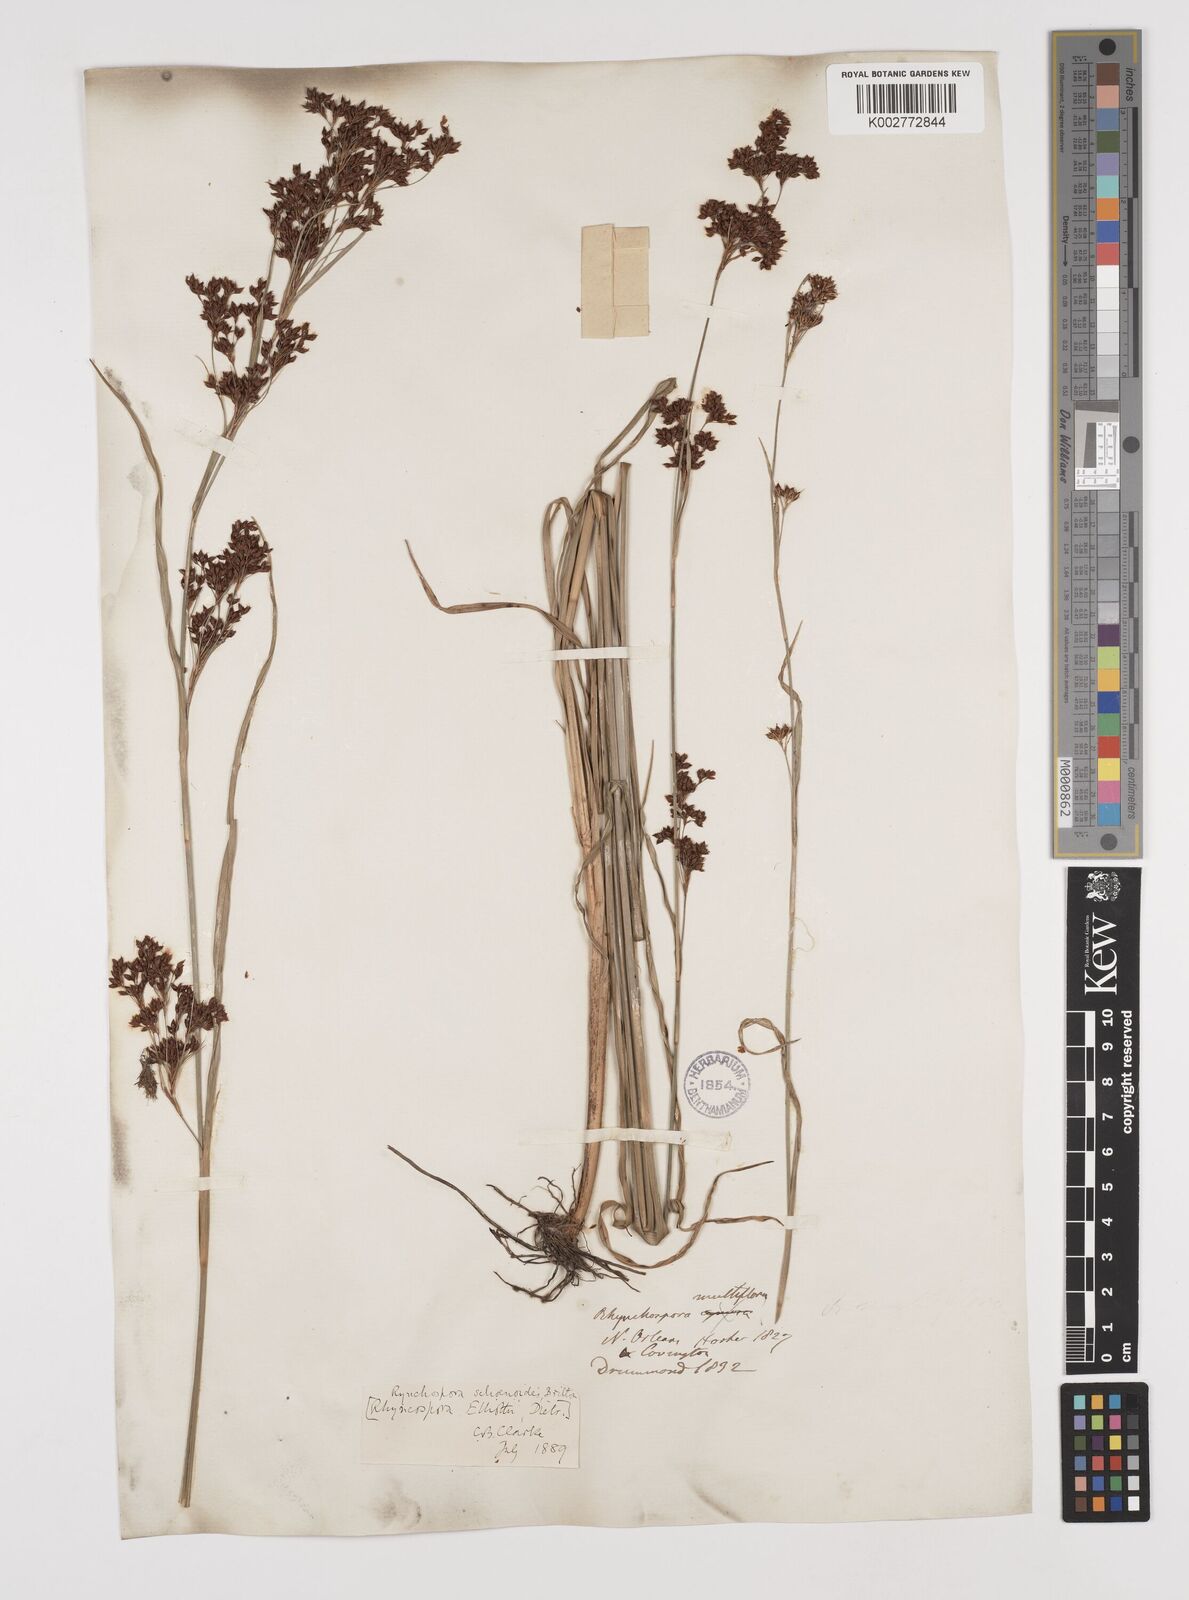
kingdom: Plantae
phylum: Tracheophyta
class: Liliopsida
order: Poales
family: Cyperaceae
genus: Rhynchospora
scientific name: Rhynchospora holoschoenoides
